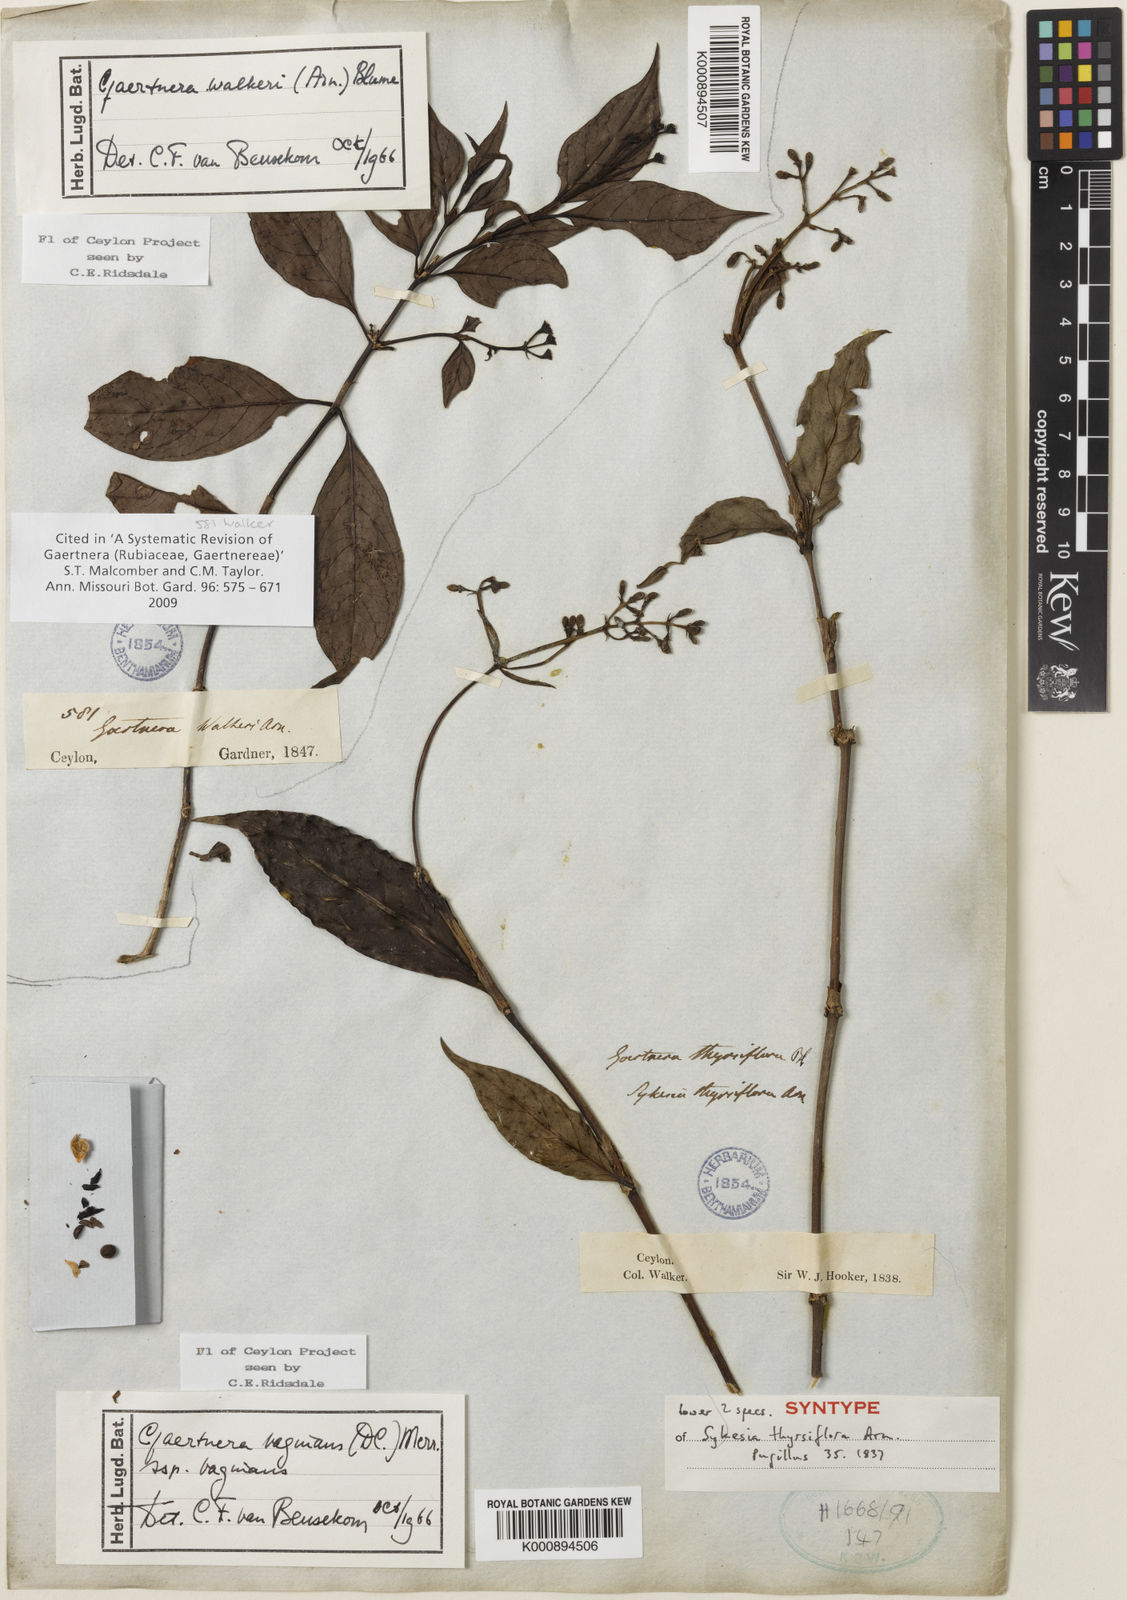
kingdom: Plantae
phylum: Tracheophyta
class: Magnoliopsida
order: Gentianales
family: Rubiaceae
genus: Gaertnera
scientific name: Gaertnera vaginans
